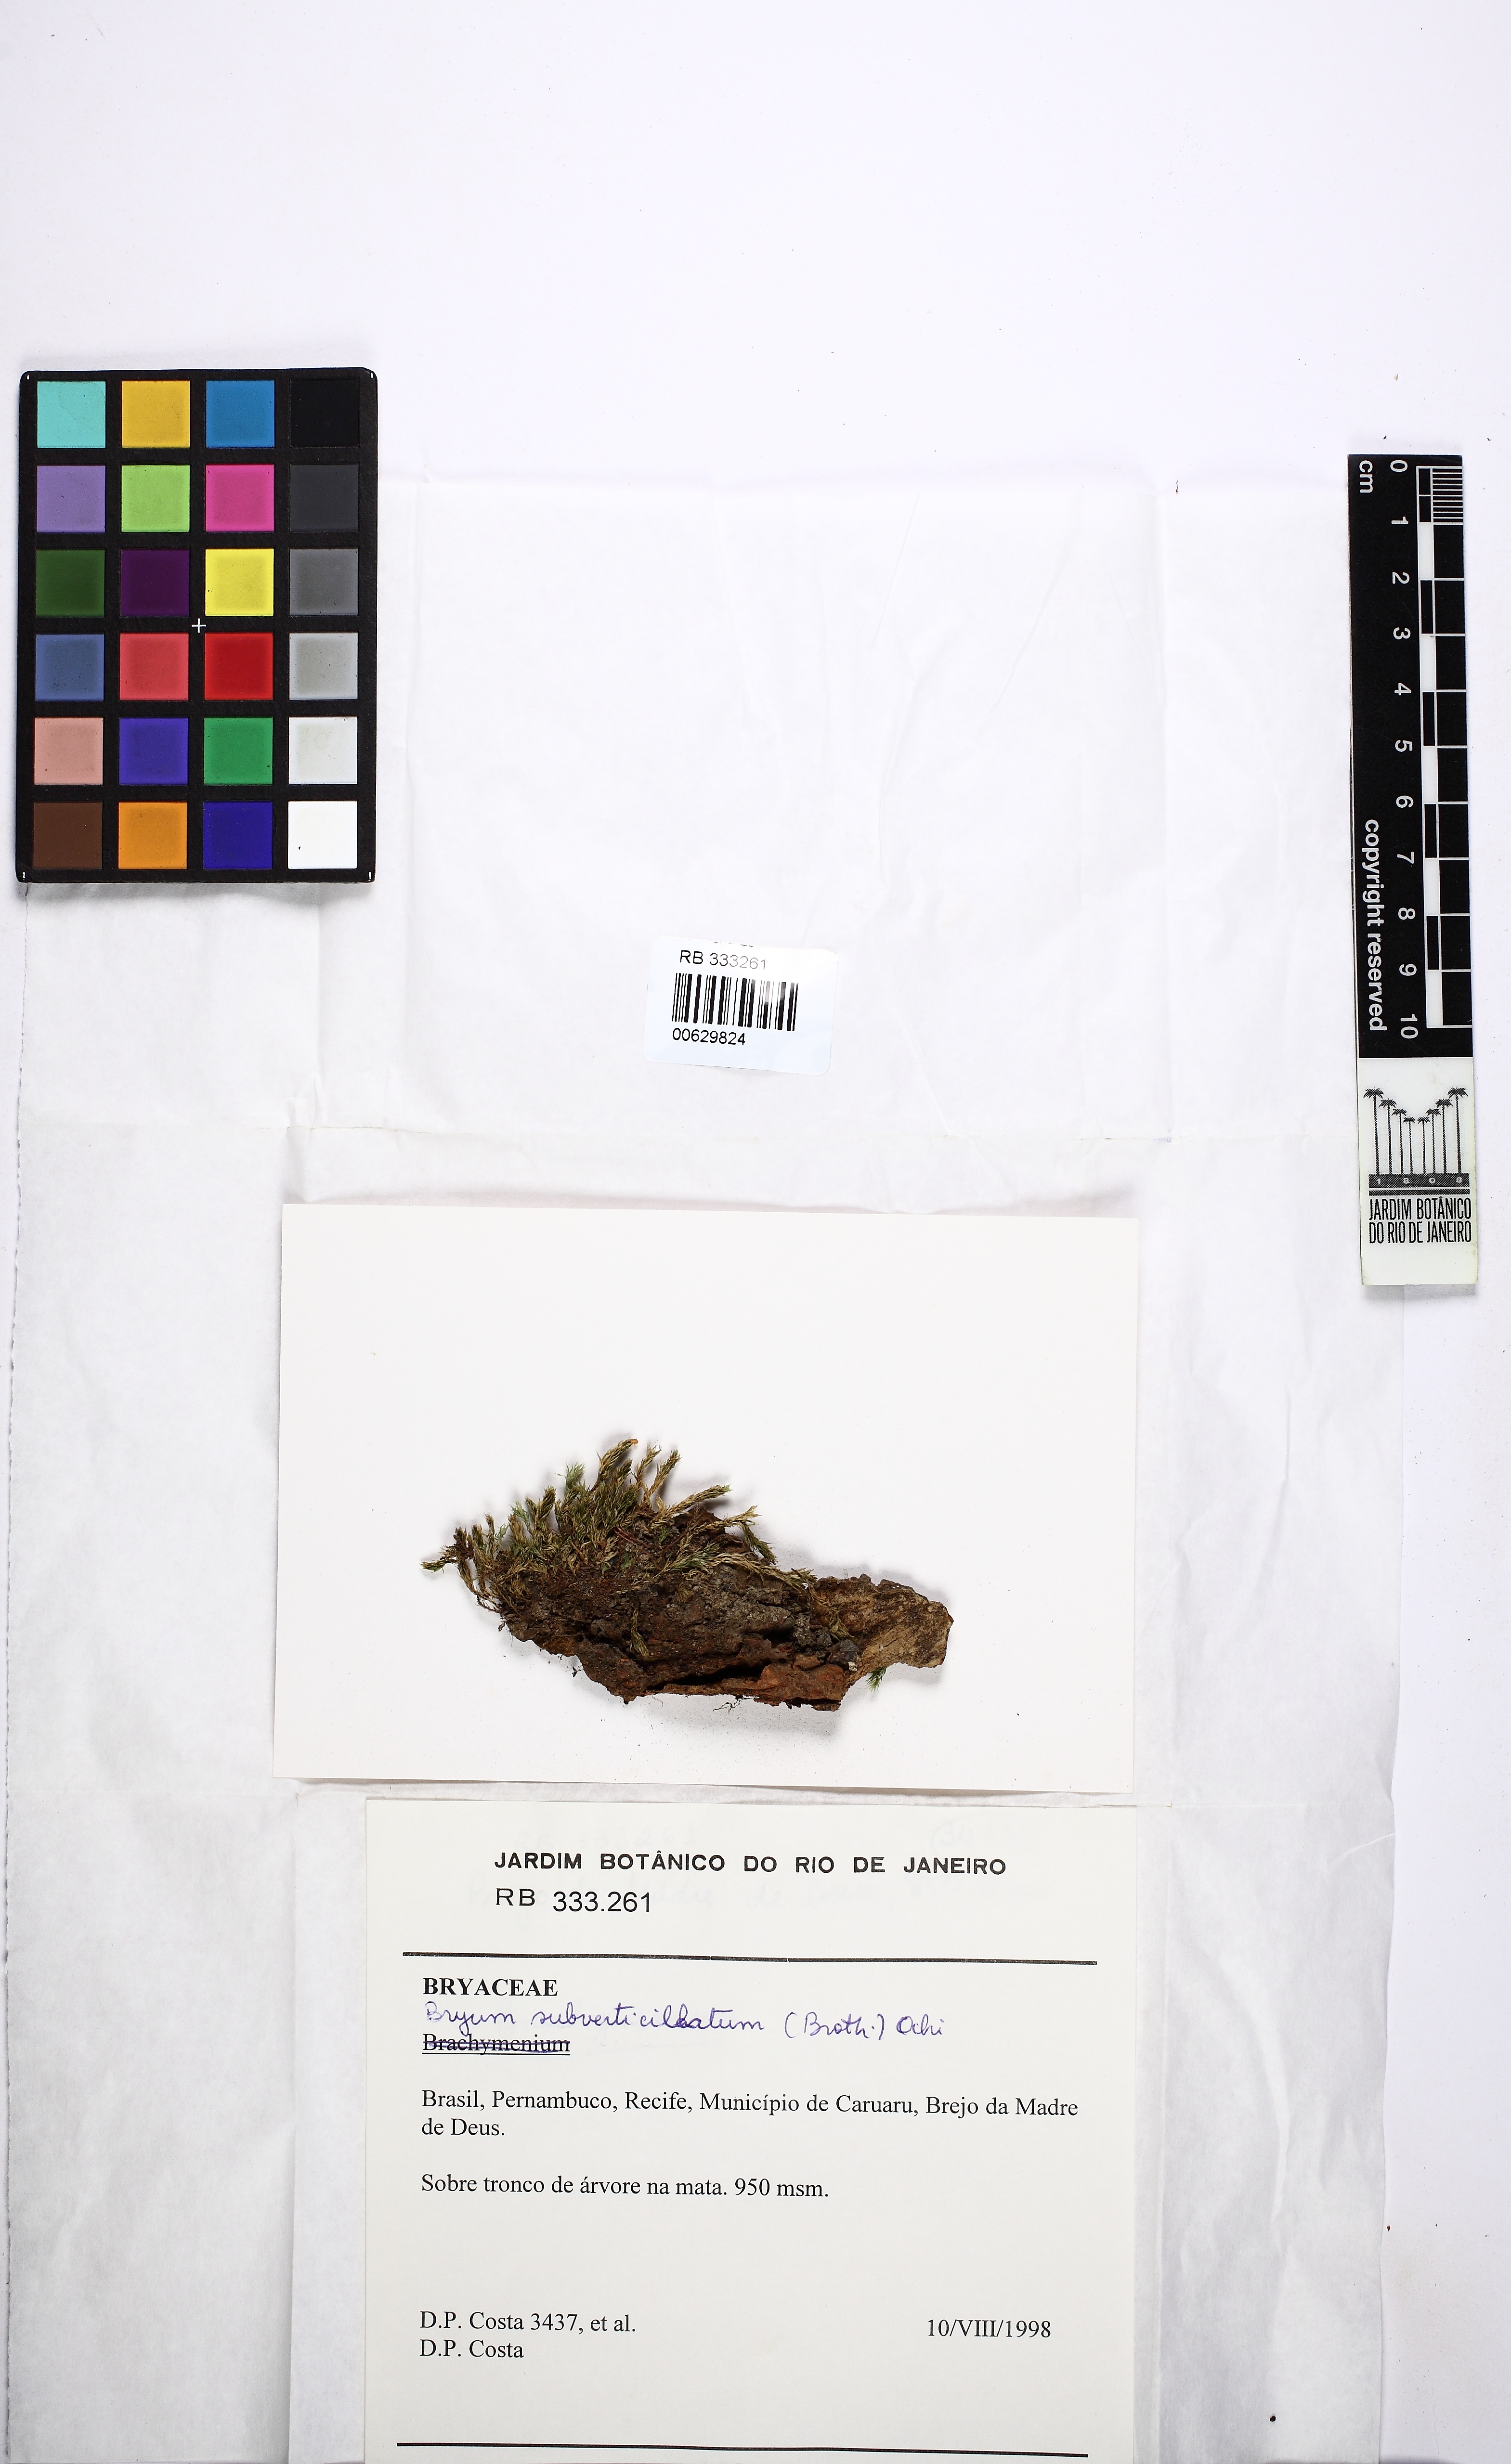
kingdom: Plantae
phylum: Bryophyta
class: Bryopsida
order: Bryales
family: Bryaceae
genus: Rhodobryum
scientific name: Rhodobryum subverticillatum
